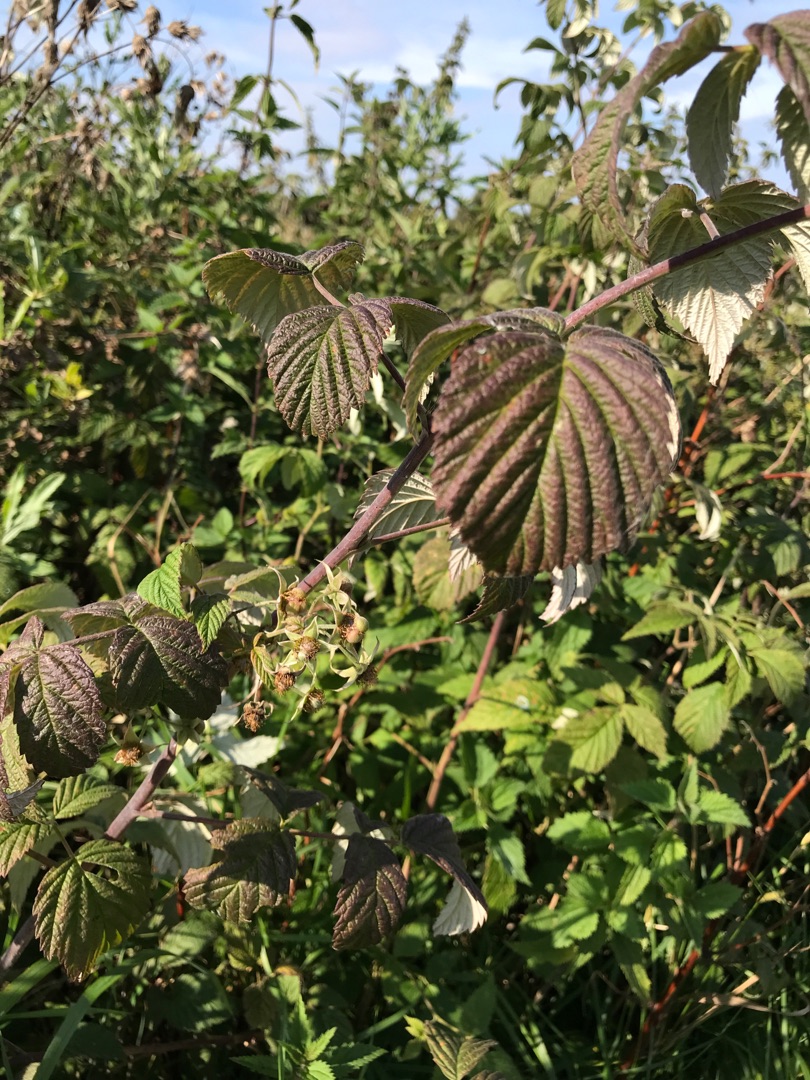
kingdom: Plantae
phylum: Tracheophyta
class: Magnoliopsida
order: Rosales
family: Rosaceae
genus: Rubus
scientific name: Rubus idaeus
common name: Hindbær
